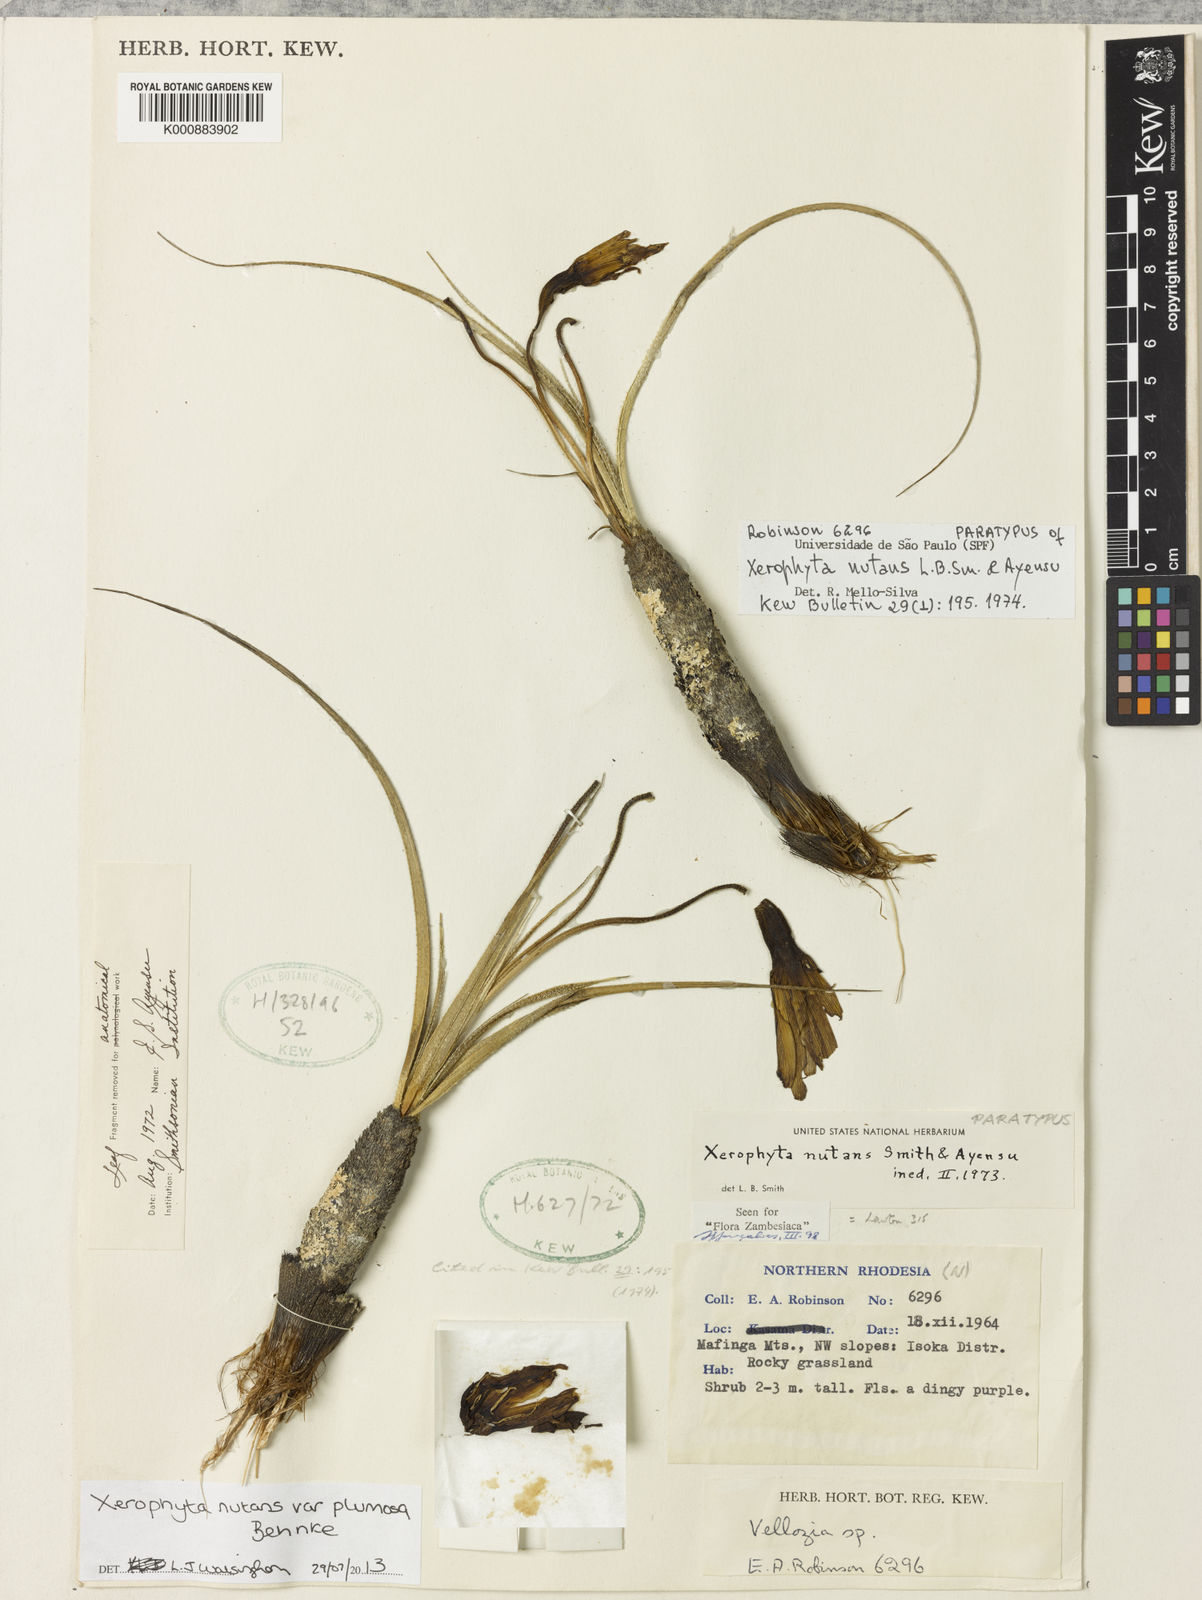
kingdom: Plantae
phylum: Tracheophyta
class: Liliopsida
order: Pandanales
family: Velloziaceae
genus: Xerophyta
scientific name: Xerophyta nutans
